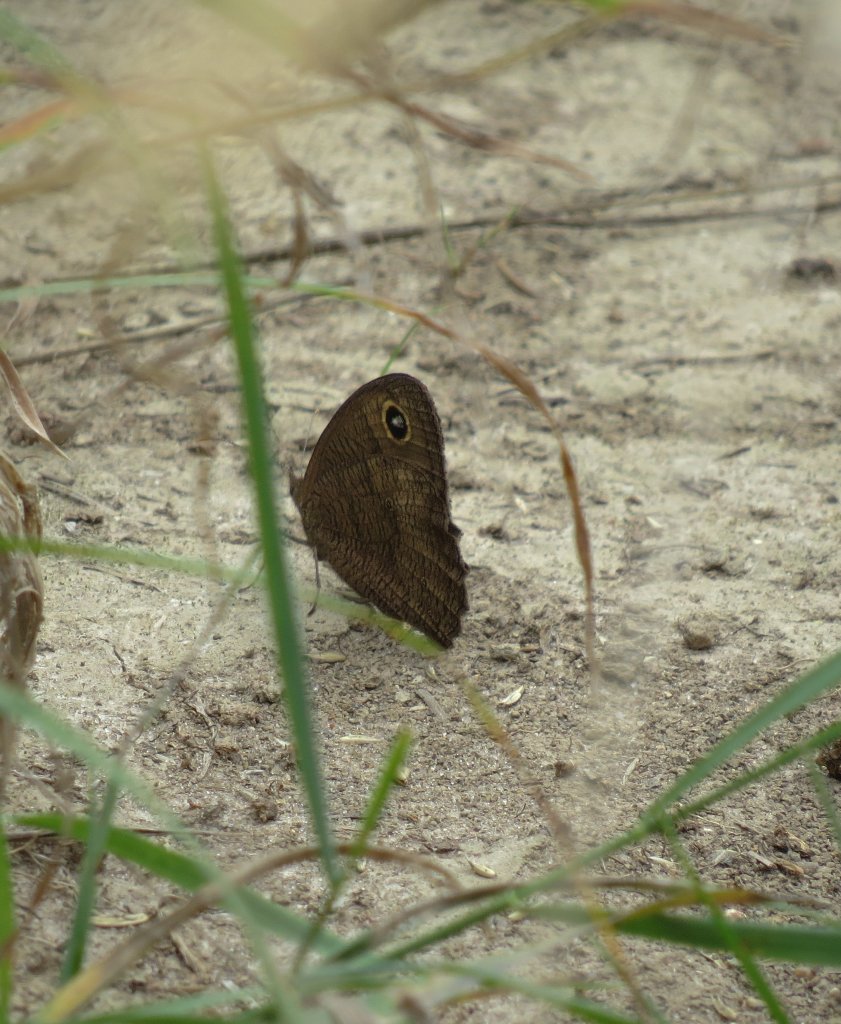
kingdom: Animalia
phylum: Arthropoda
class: Insecta
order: Lepidoptera
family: Nymphalidae
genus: Cercyonis
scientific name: Cercyonis pegala
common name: Common Wood-Nymph
